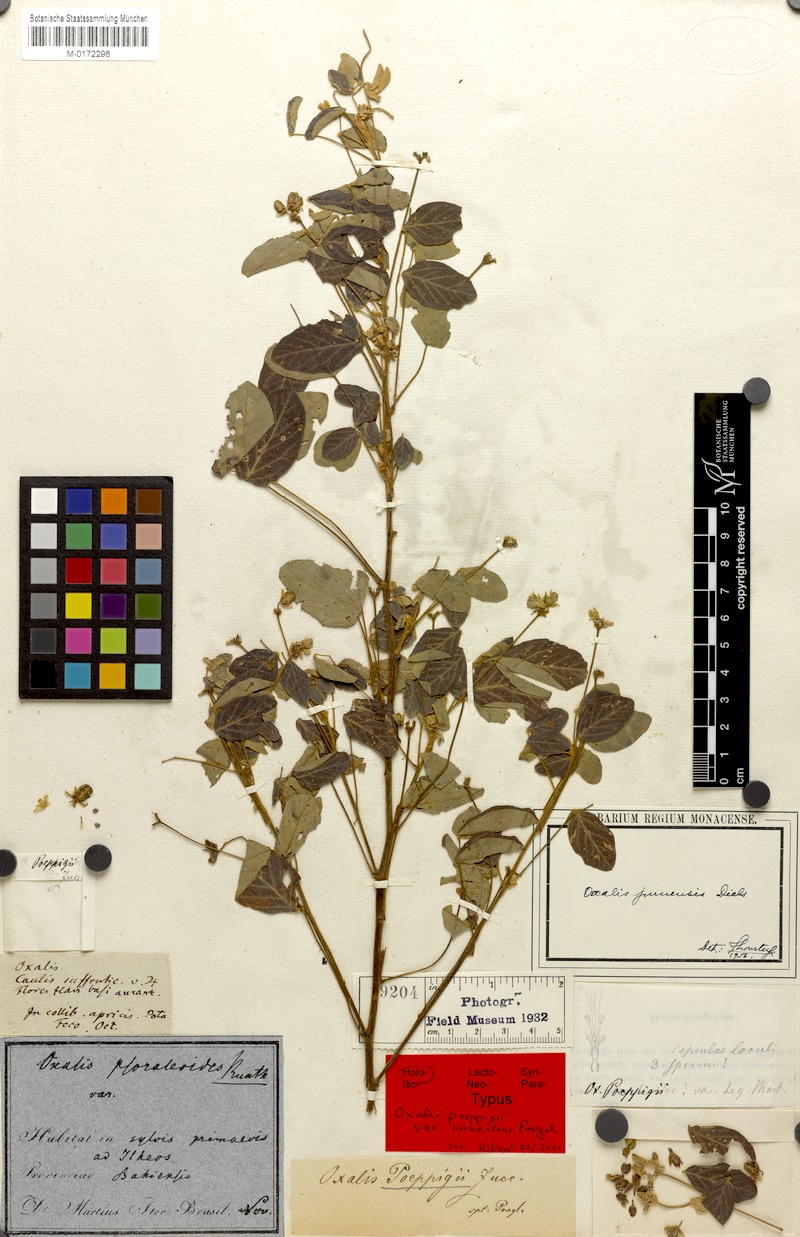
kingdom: Plantae
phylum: Tracheophyta
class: Magnoliopsida
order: Oxalidales
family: Oxalidaceae
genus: Oxalis
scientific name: Oxalis juruensis
